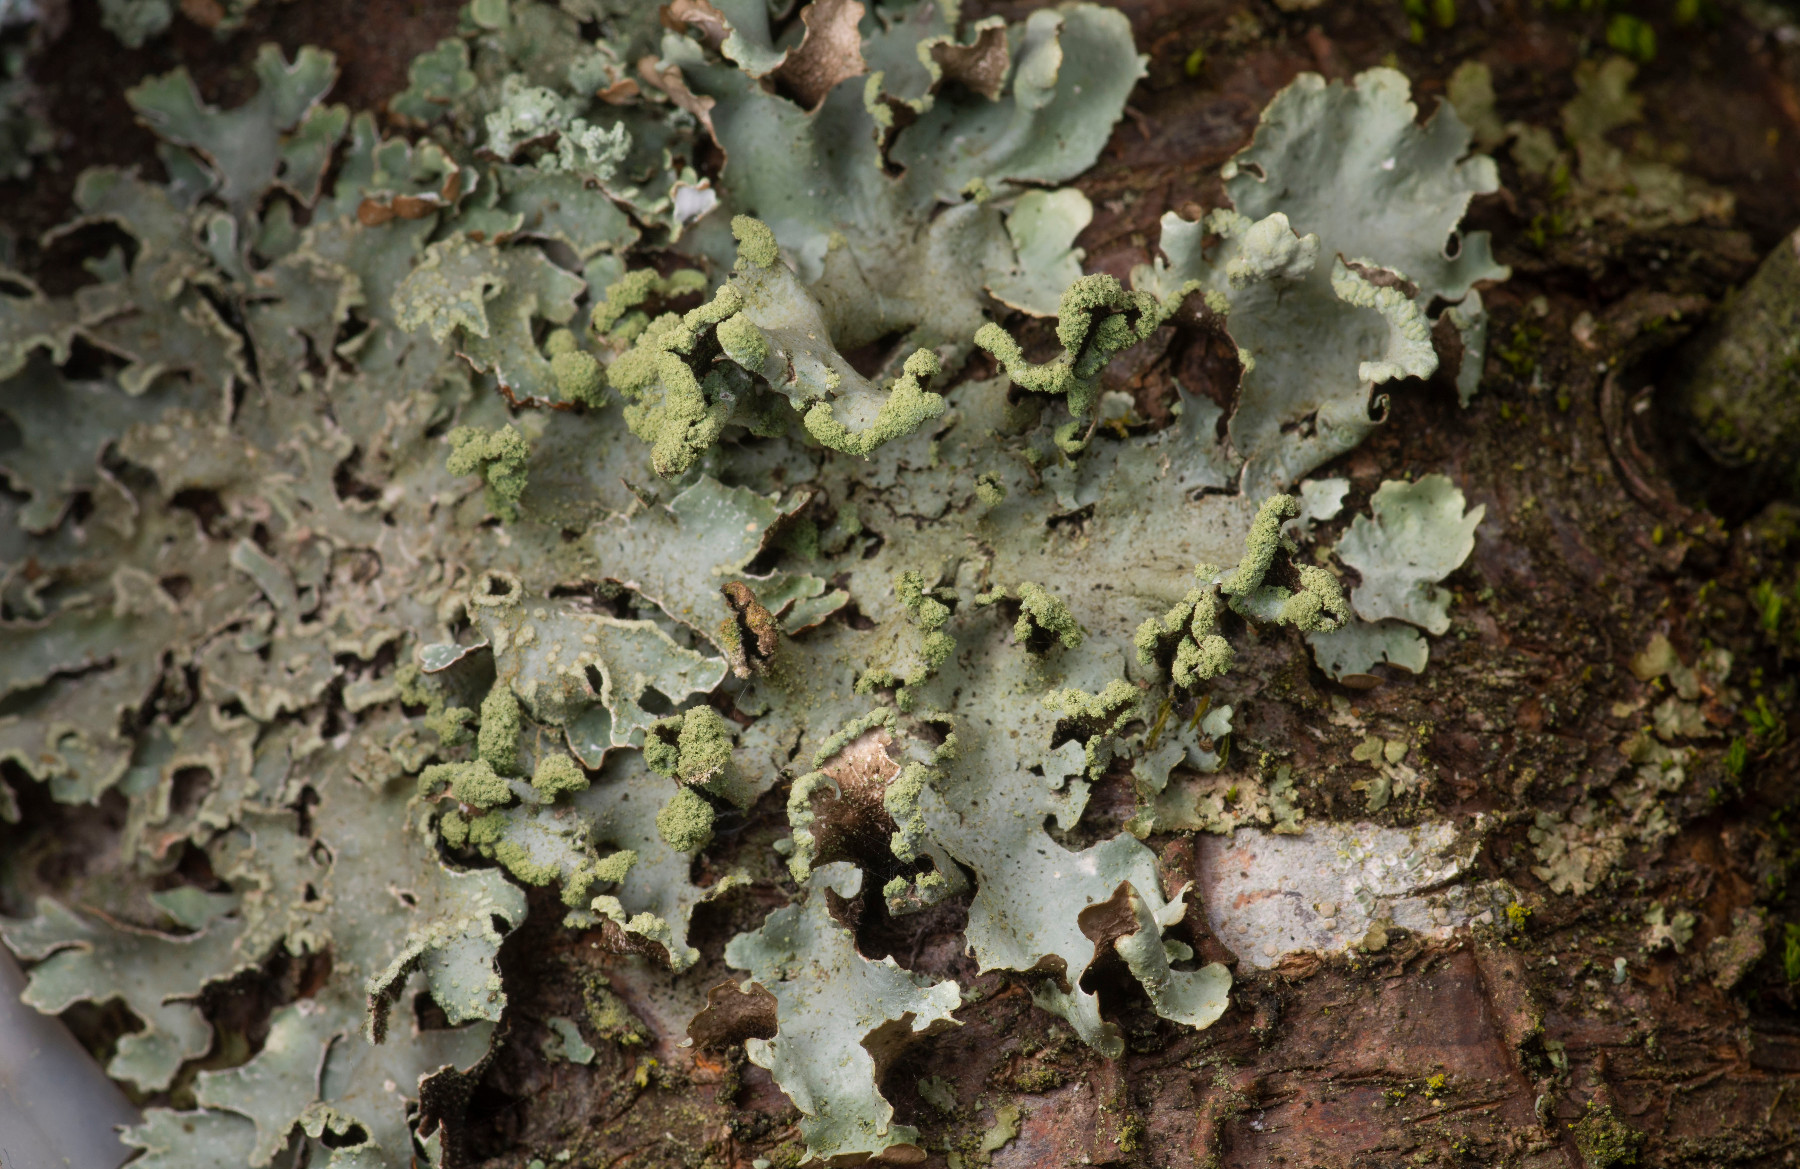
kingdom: Fungi
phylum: Ascomycota
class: Lecanoromycetes
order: Lecanorales
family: Parmeliaceae
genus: Hypotrachyna
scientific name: Hypotrachyna revoluta
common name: bleggrå skållav
